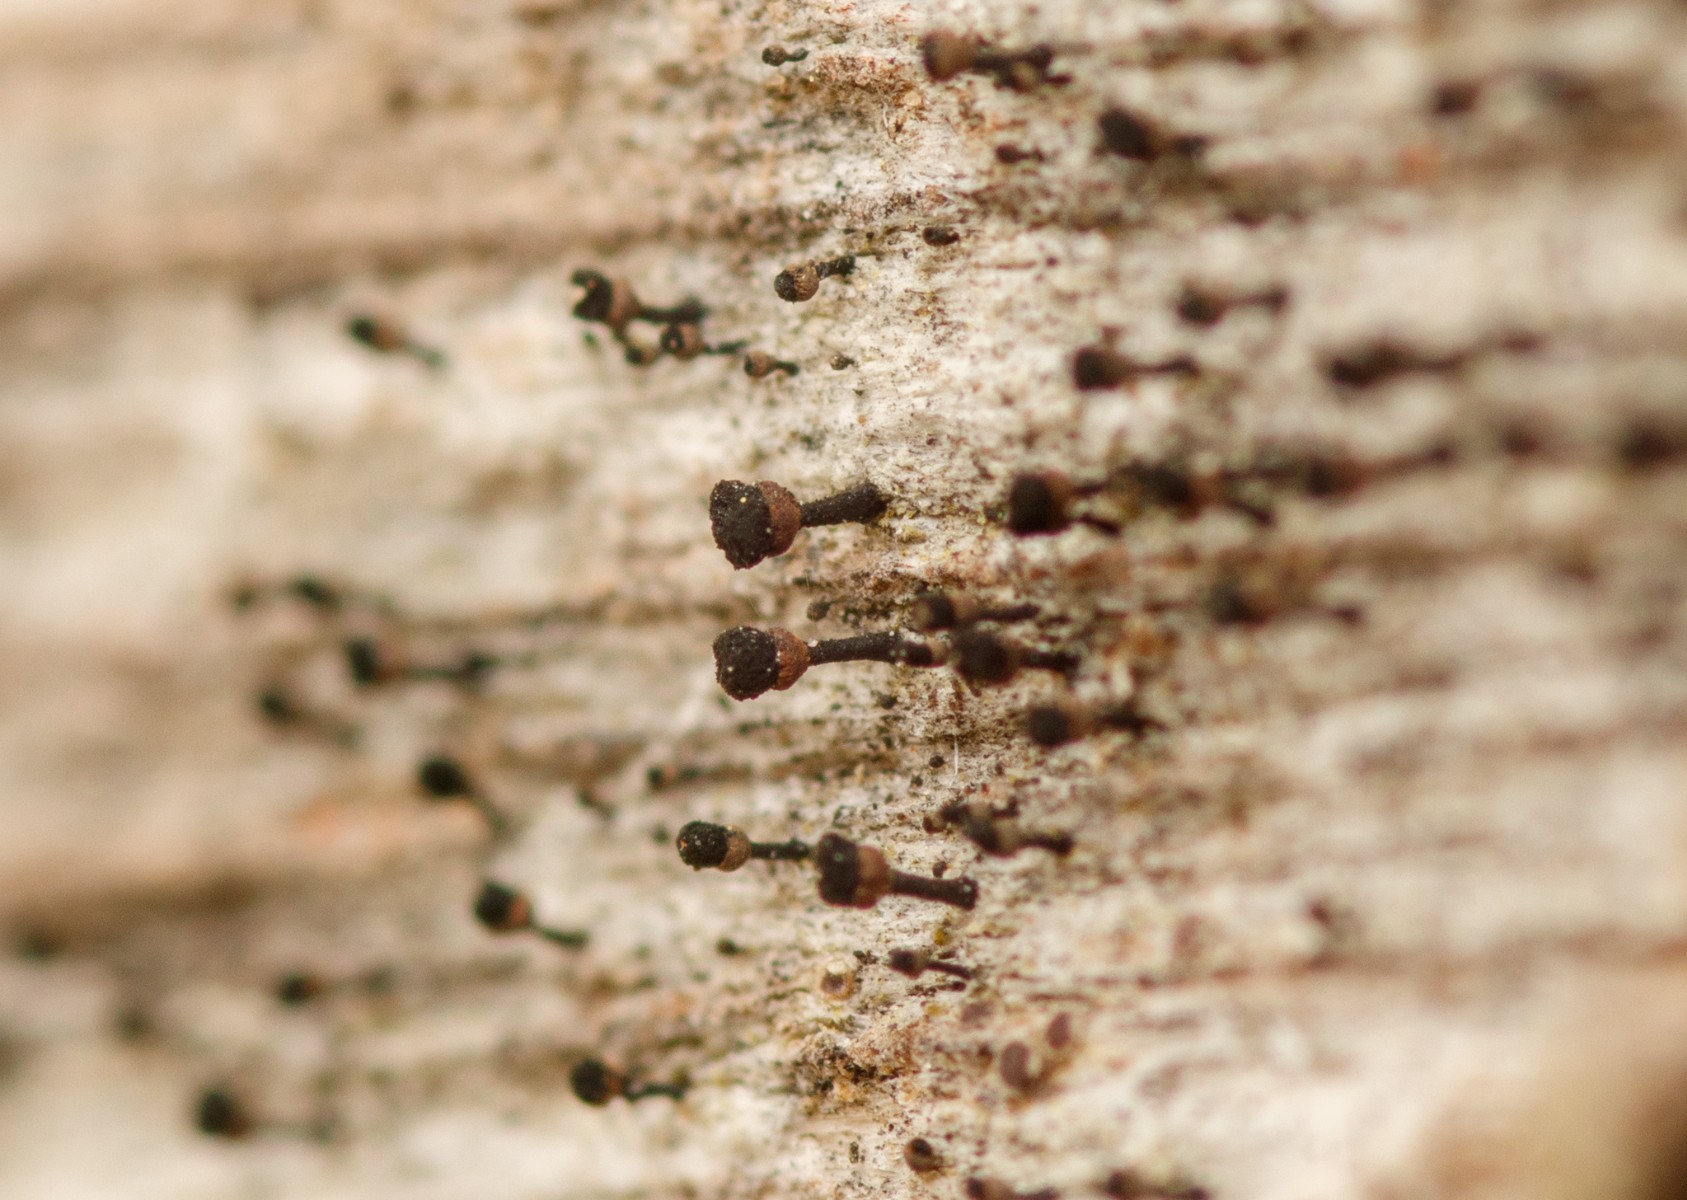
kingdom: Fungi
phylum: Ascomycota
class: Lecanoromycetes
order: Caliciales
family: Caliciaceae
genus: Calicium
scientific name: Calicium salicinum
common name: persoons nålelav
